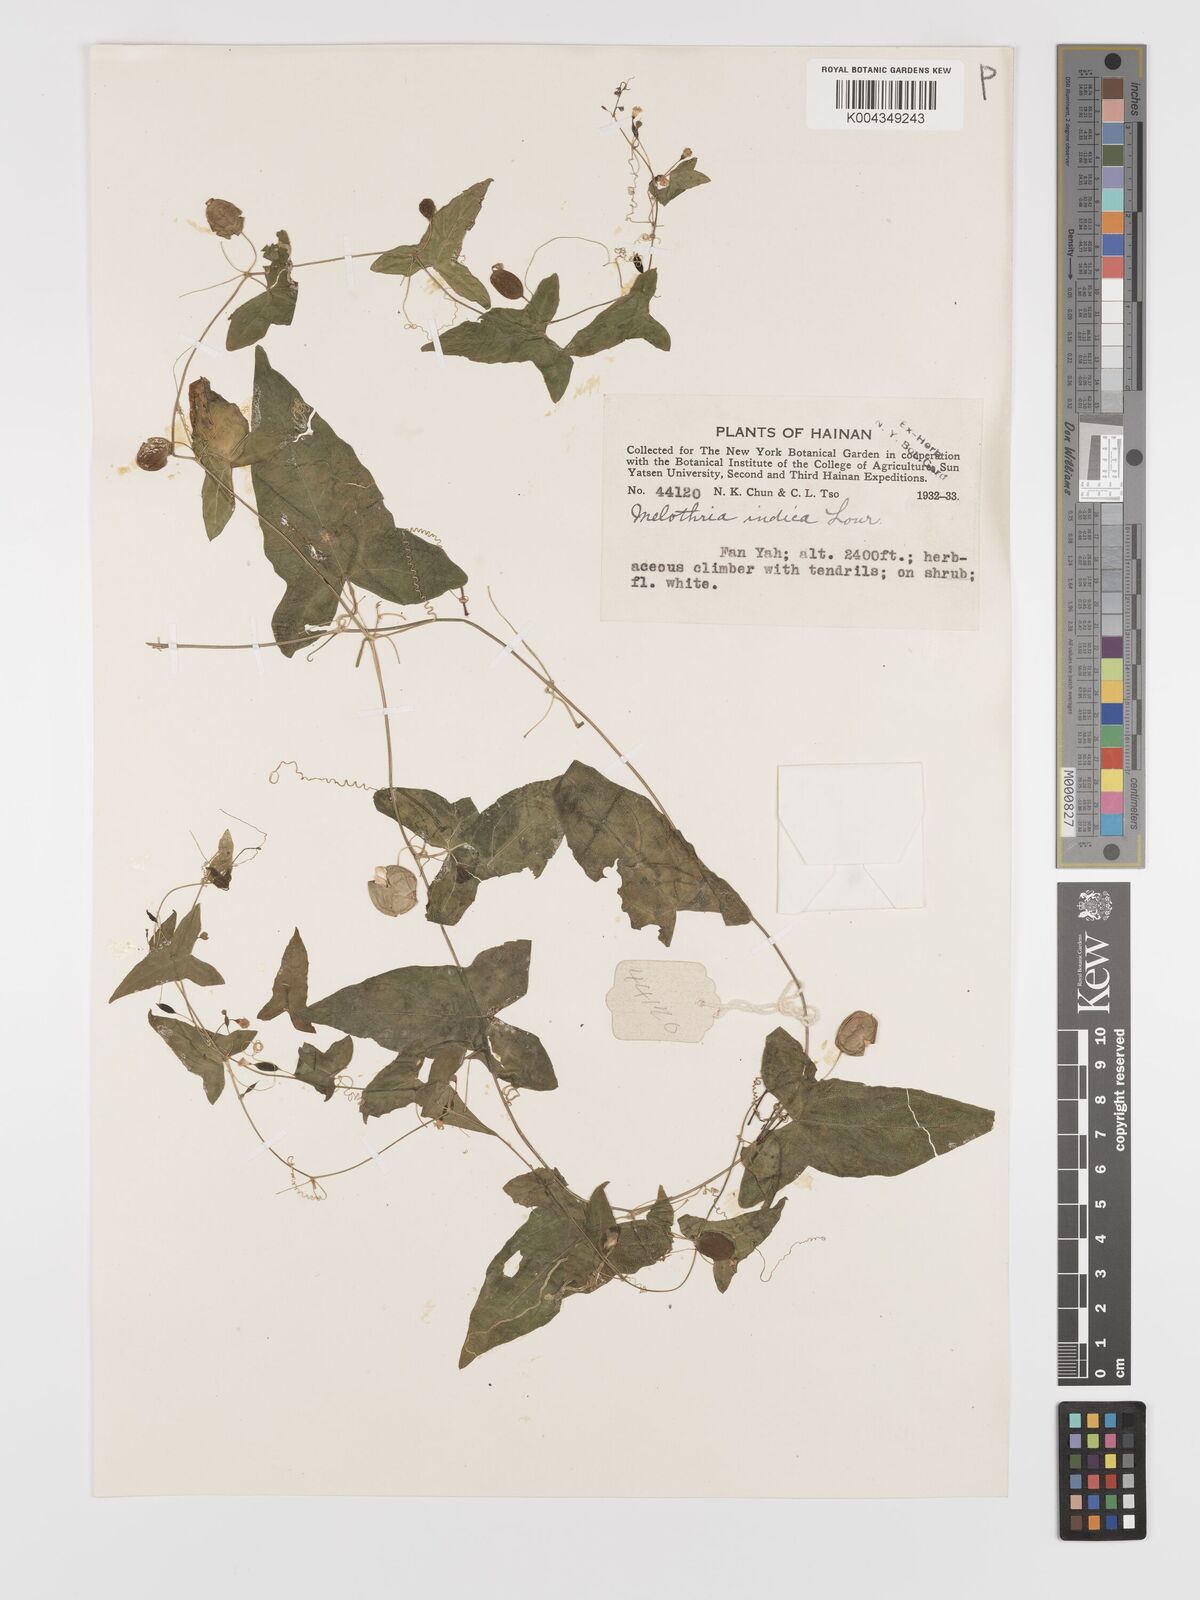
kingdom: Plantae
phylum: Tracheophyta
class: Magnoliopsida
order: Cucurbitales
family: Cucurbitaceae
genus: Zehneria
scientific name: Zehneria japonica
